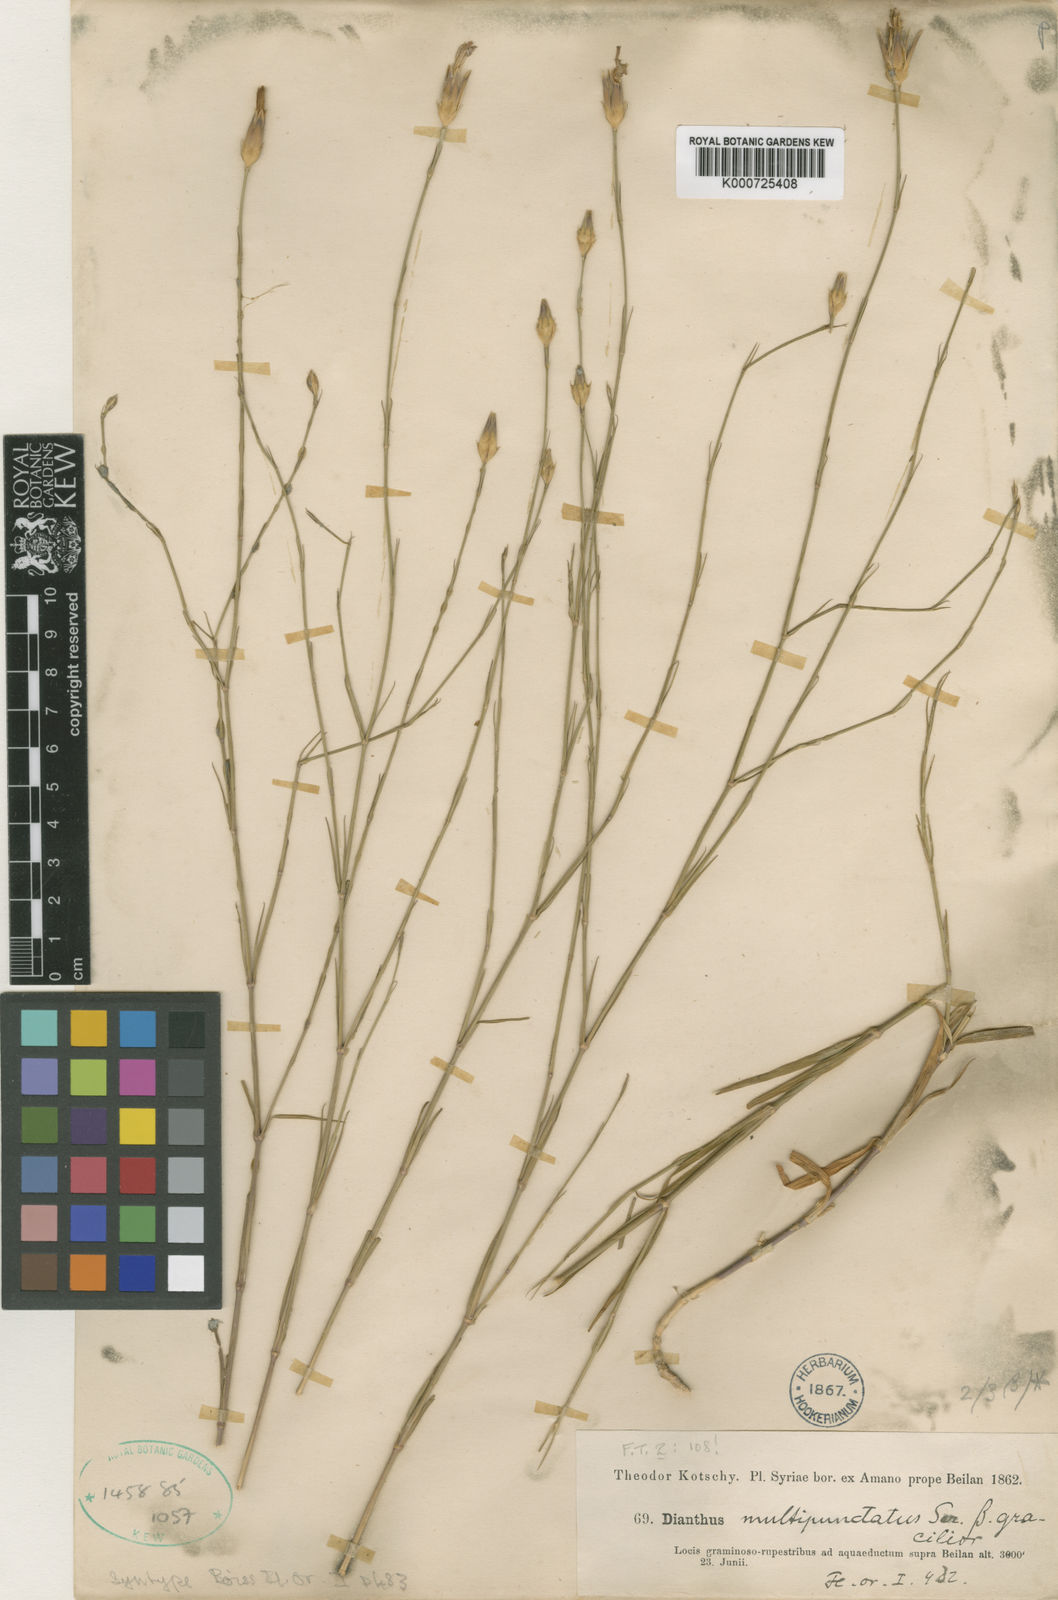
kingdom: Plantae
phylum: Tracheophyta
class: Magnoliopsida
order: Caryophyllales
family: Caryophyllaceae
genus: Dianthus
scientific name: Dianthus strictus
